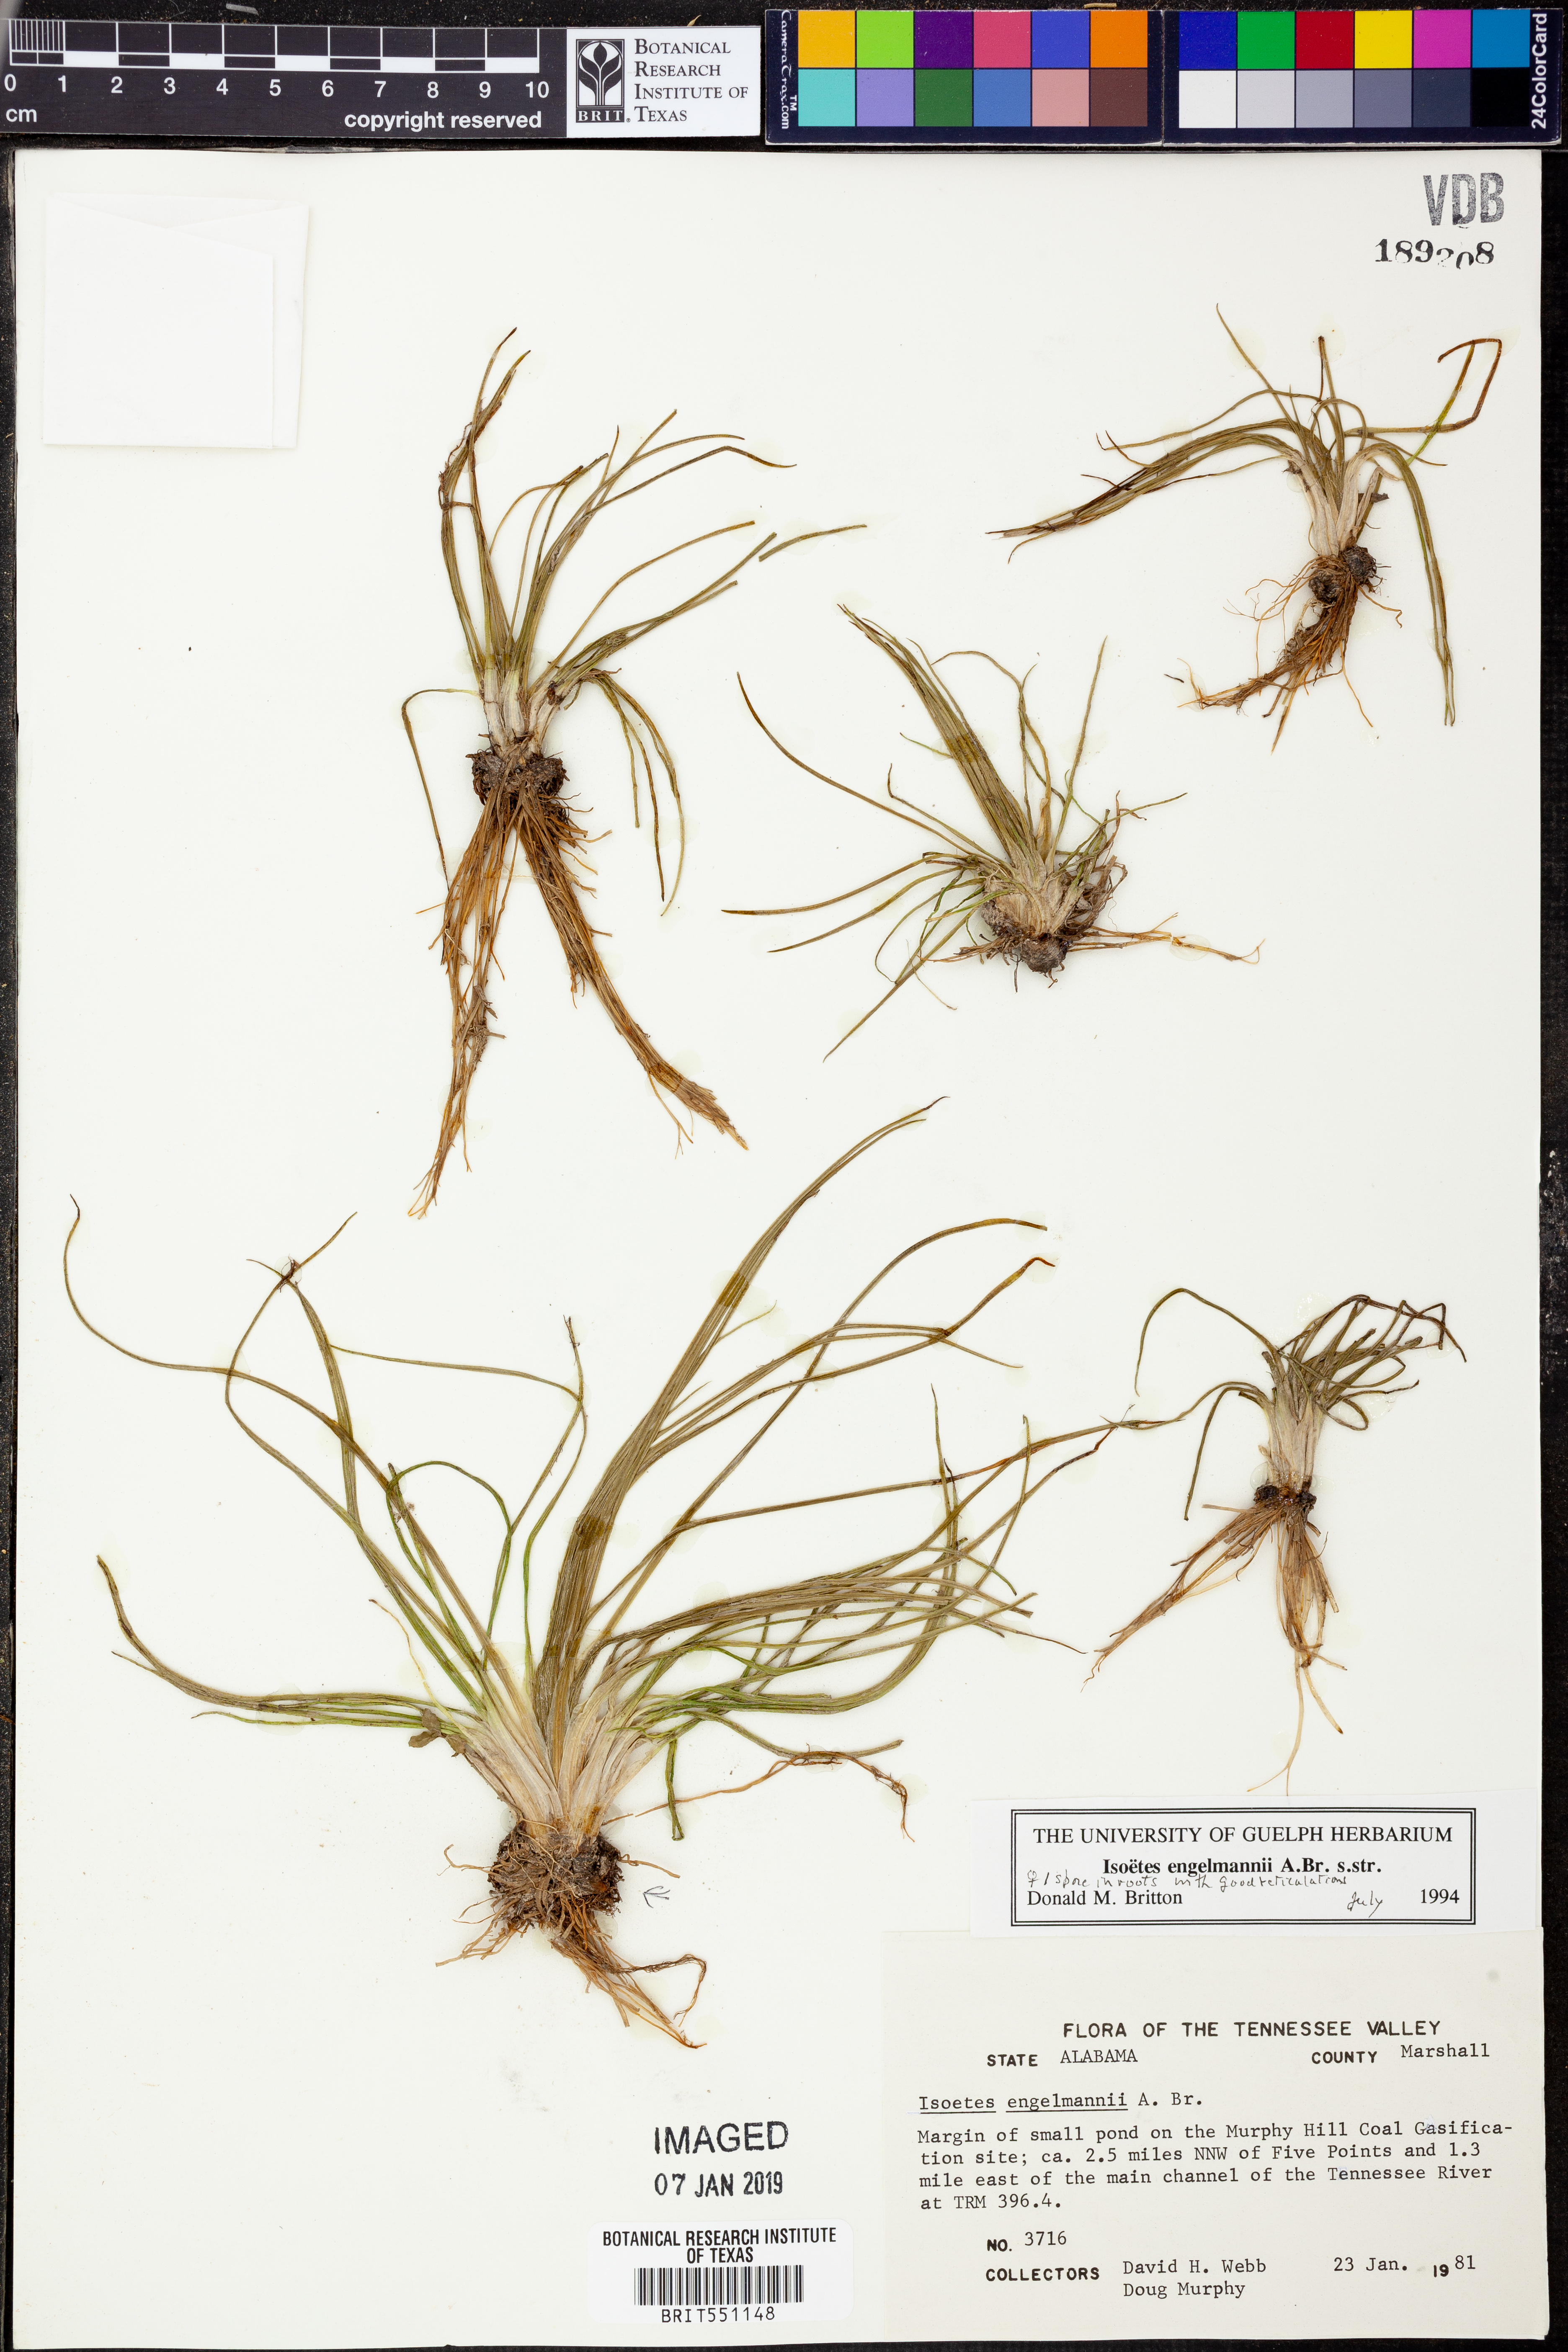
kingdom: Plantae
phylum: Tracheophyta
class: Lycopodiopsida
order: Isoetales
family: Isoetaceae
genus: Isoetes
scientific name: Isoetes engelmannii
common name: Engelmann's quillwort
